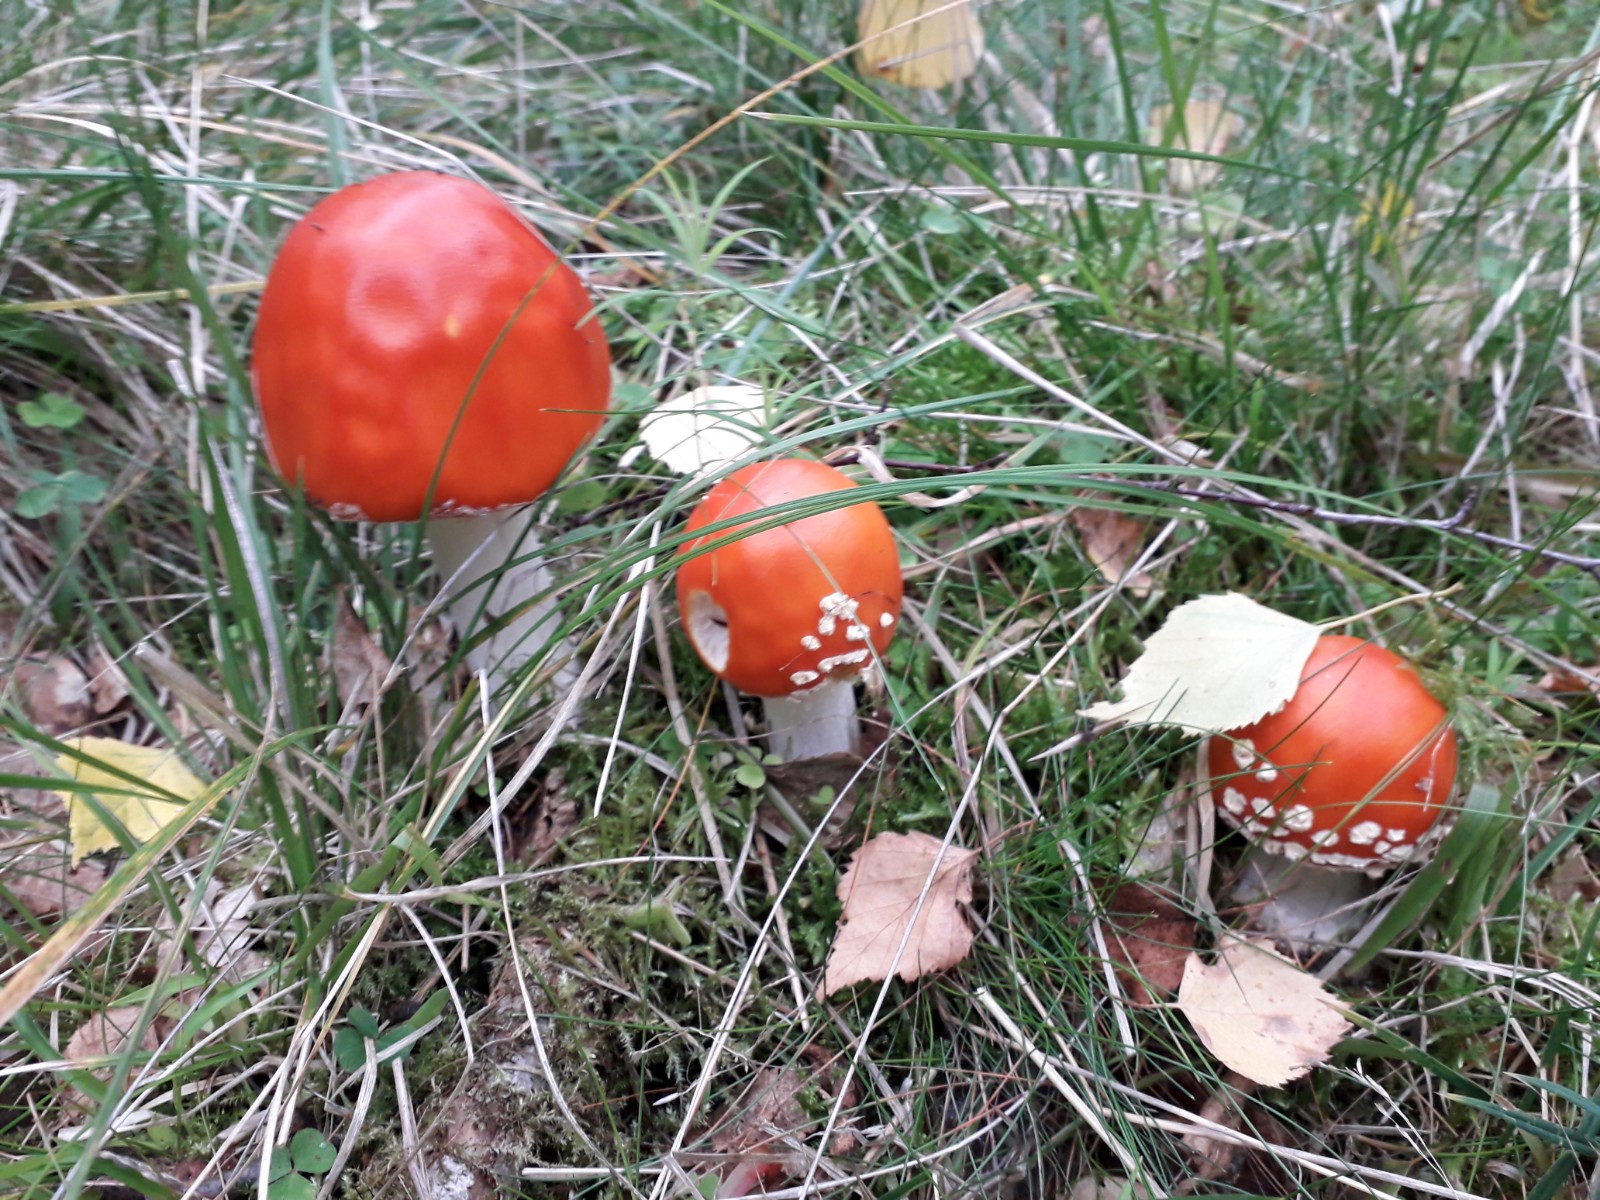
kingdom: Fungi
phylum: Basidiomycota
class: Agaricomycetes
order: Agaricales
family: Amanitaceae
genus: Amanita
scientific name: Amanita muscaria
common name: rød fluesvamp
